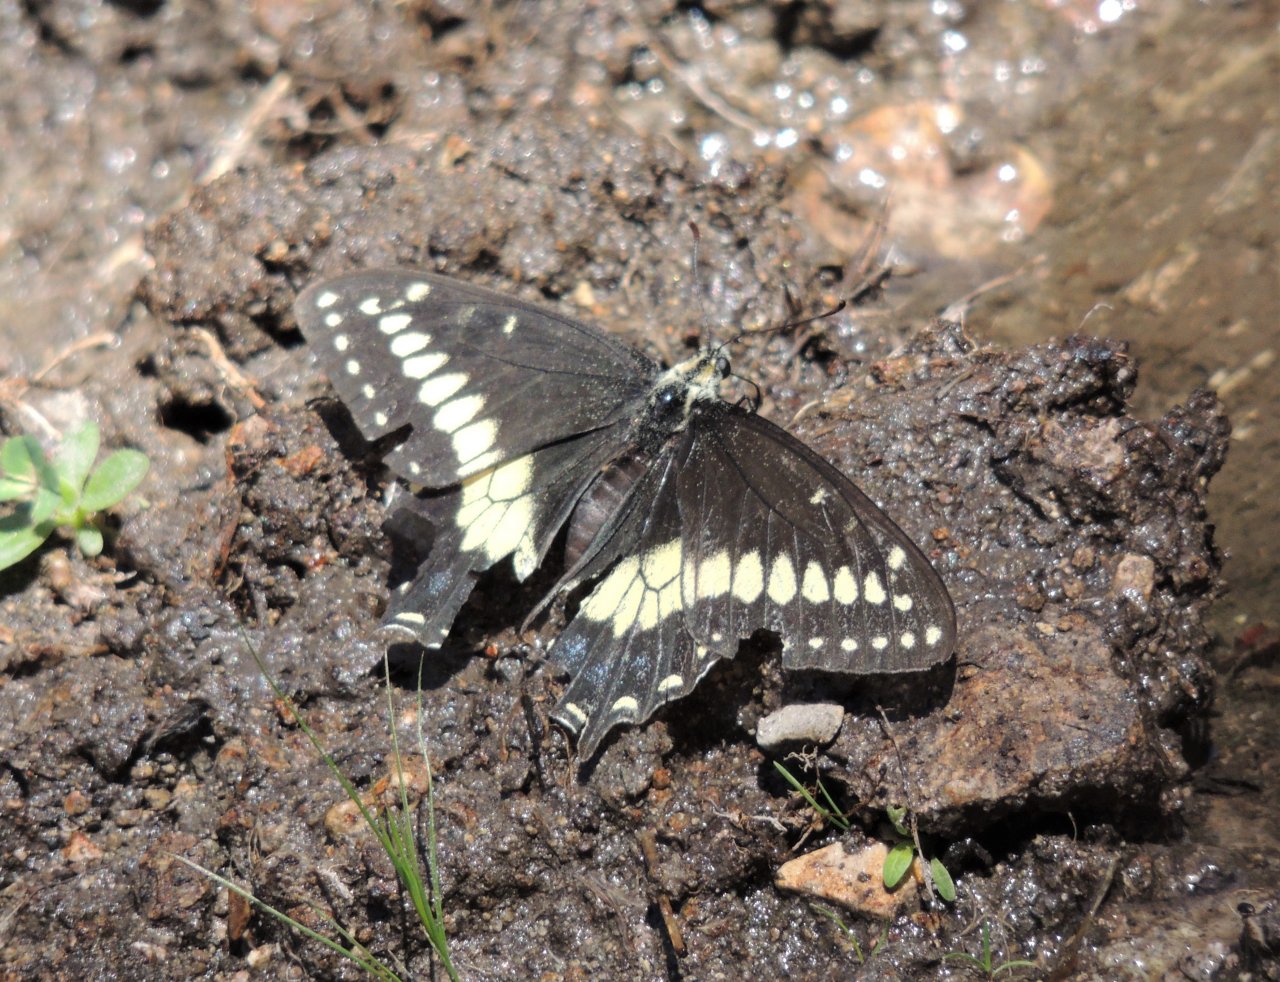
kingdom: Animalia
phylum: Arthropoda
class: Insecta
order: Lepidoptera
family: Papilionidae
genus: Papilio
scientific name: Papilio indra
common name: Indra Swallowtail
